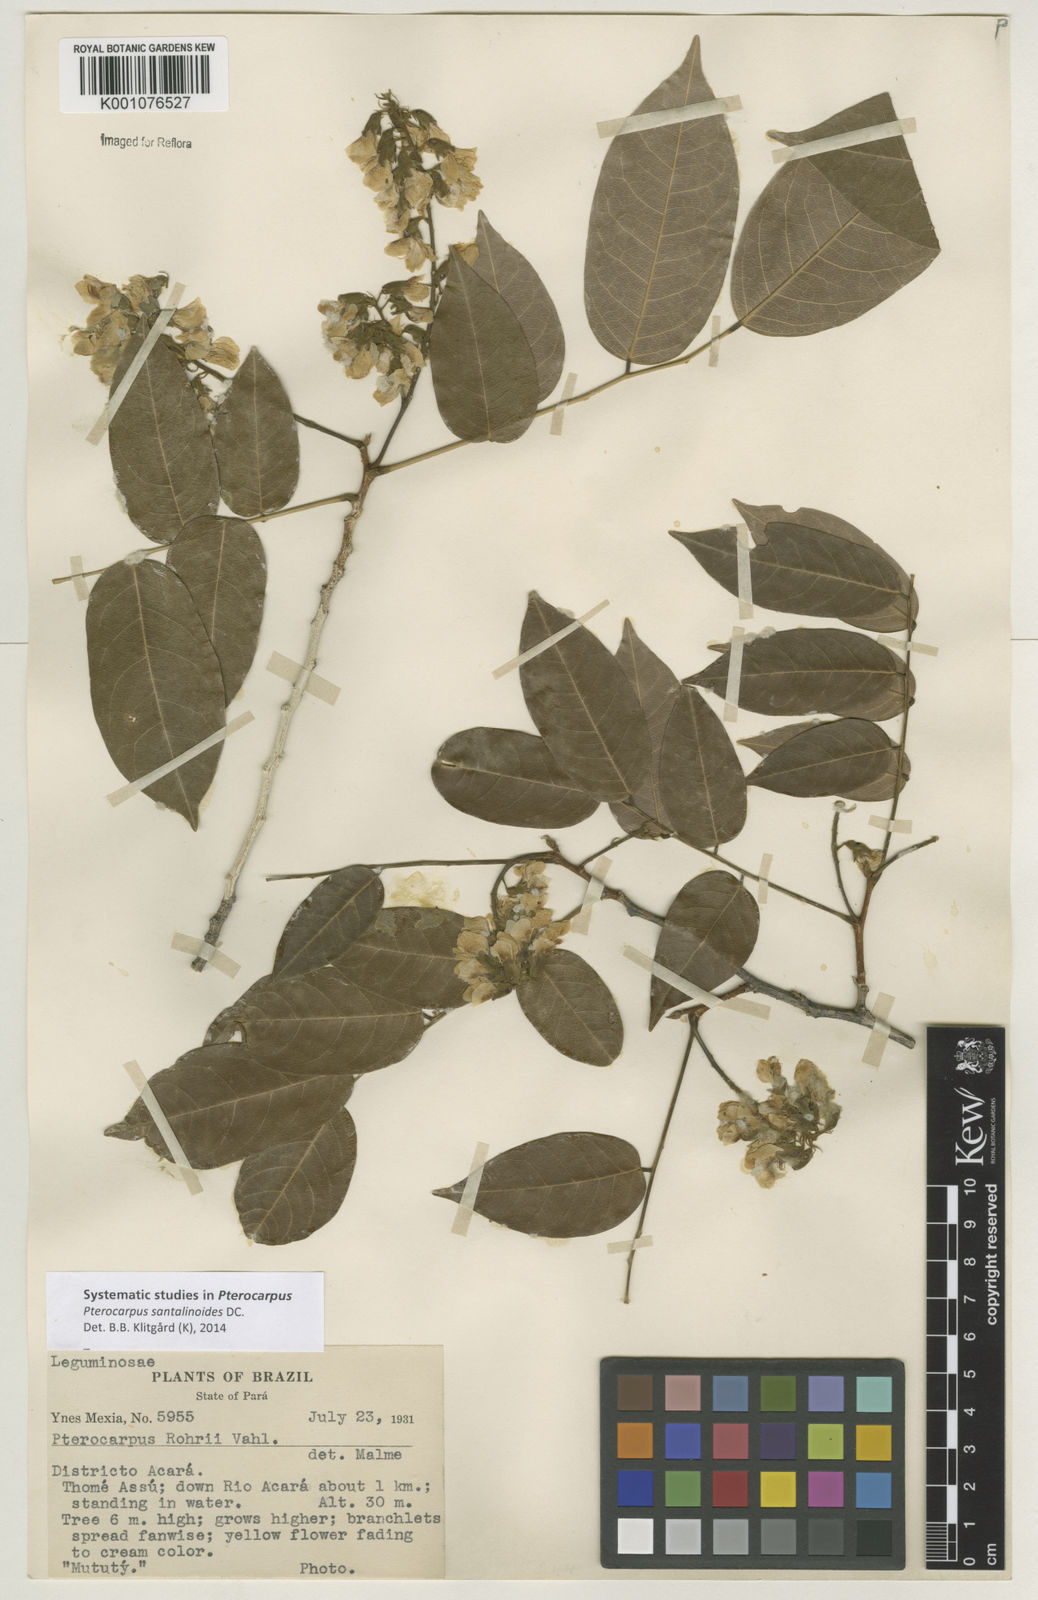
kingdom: Plantae
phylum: Tracheophyta
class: Magnoliopsida
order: Fabales
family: Fabaceae
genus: Pterocarpus
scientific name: Pterocarpus santalinoides
